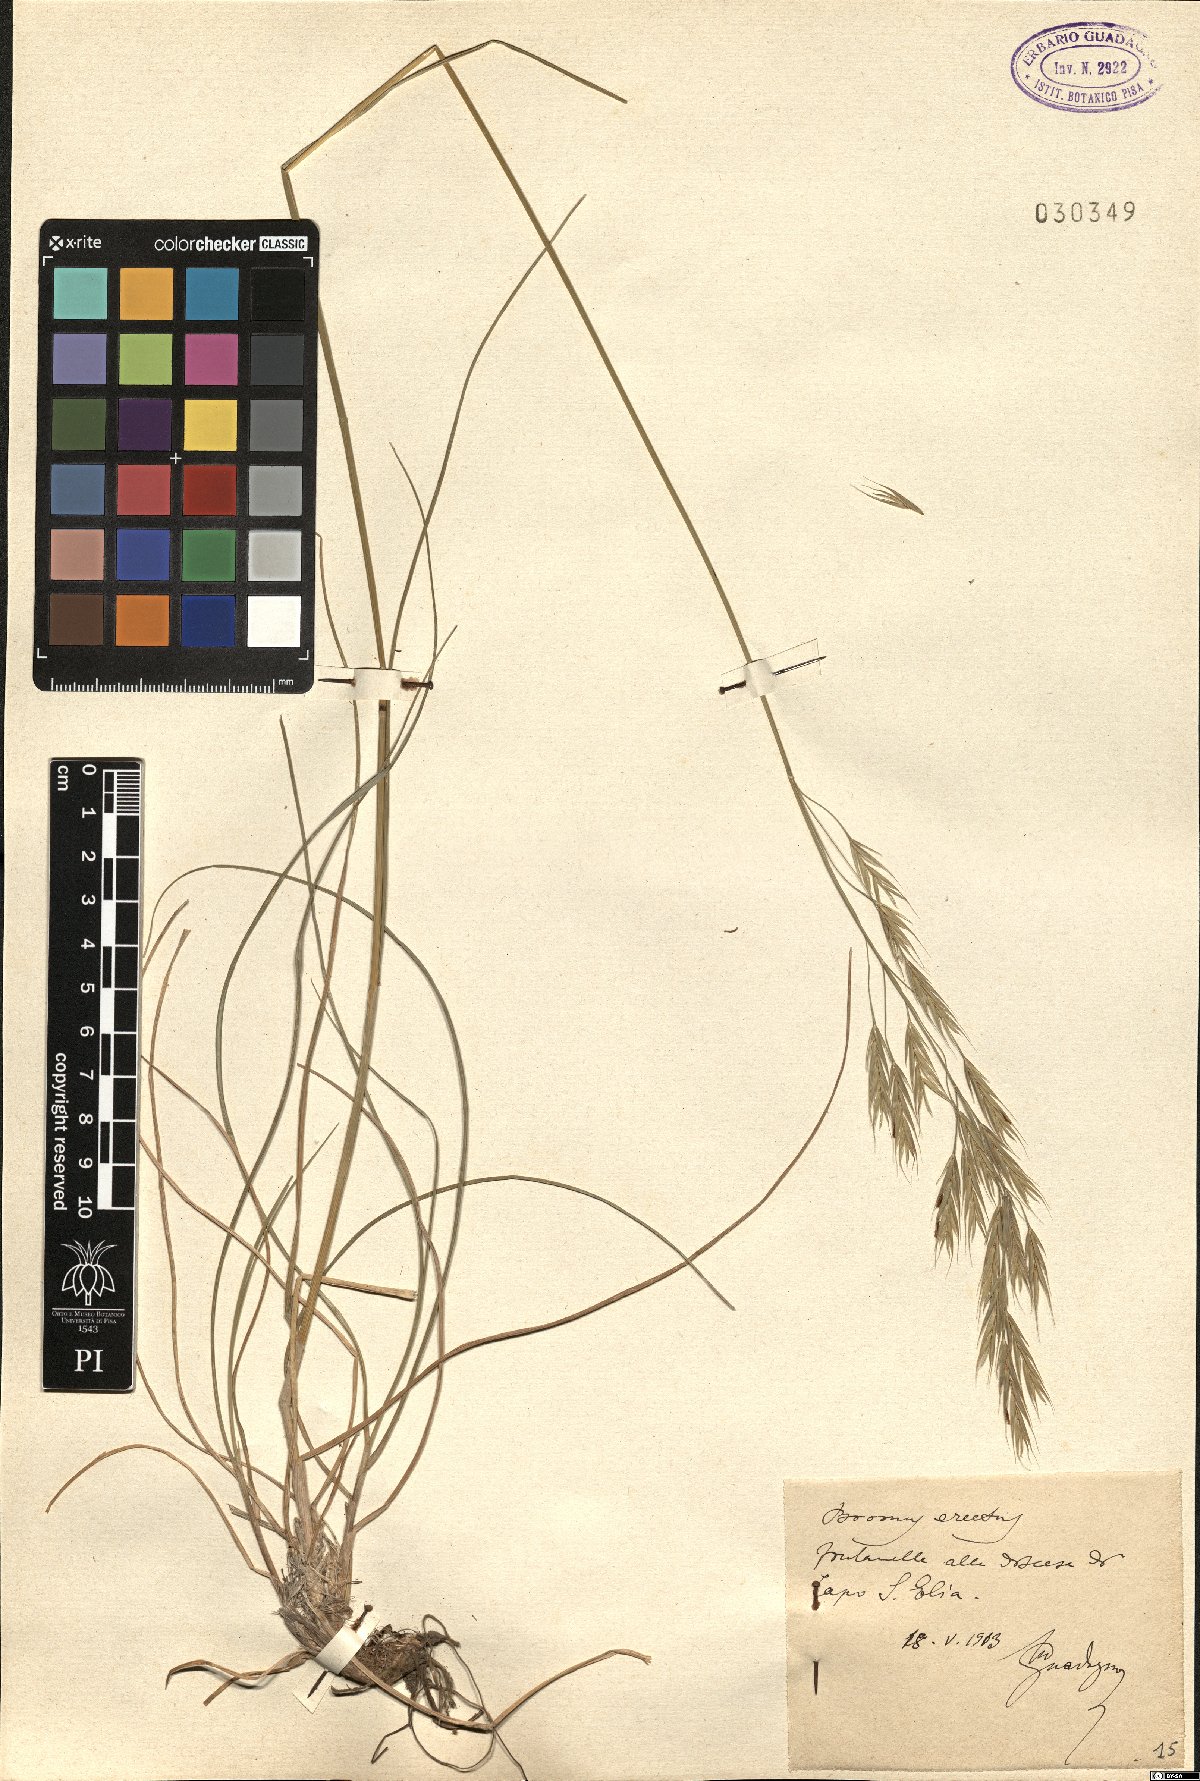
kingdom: Plantae
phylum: Tracheophyta
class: Liliopsida
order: Poales
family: Poaceae
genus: Bromus
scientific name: Bromus erectus
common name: Erect brome
